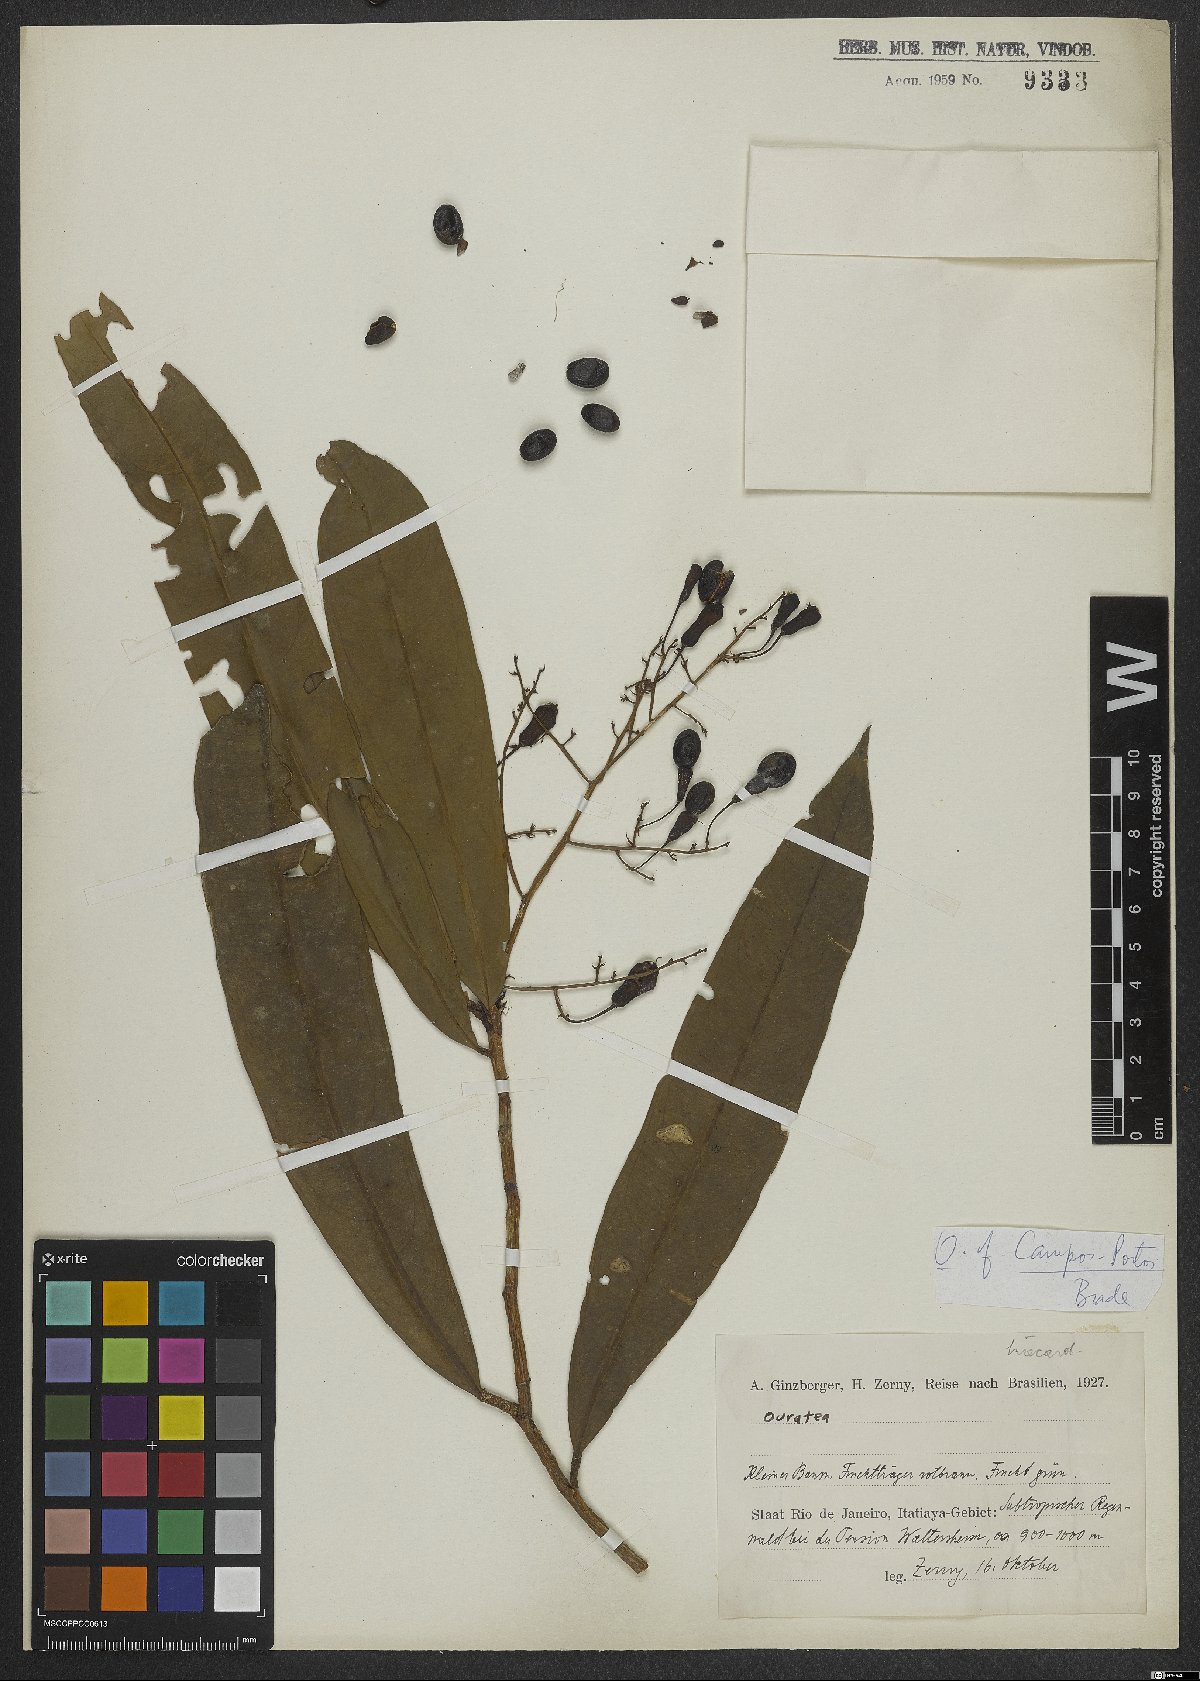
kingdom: Plantae
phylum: Tracheophyta
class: Magnoliopsida
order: Malpighiales
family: Ochnaceae
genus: Ouratea
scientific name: Ouratea
